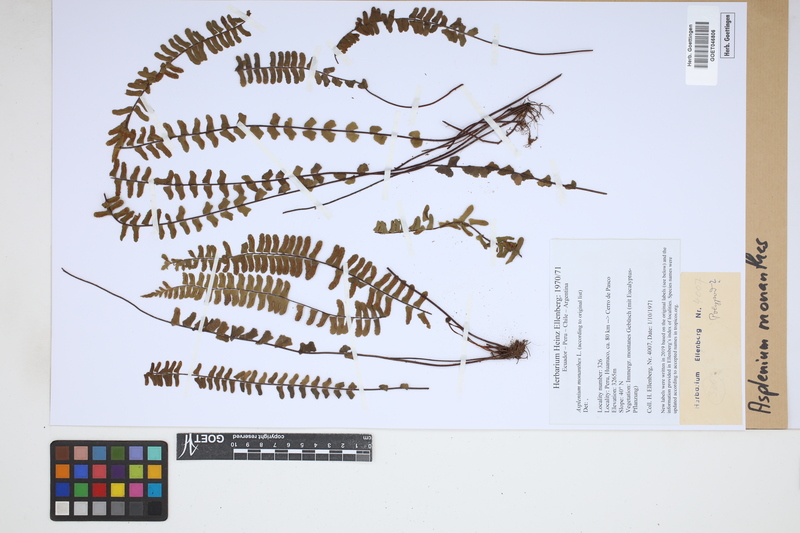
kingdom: Plantae
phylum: Tracheophyta
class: Polypodiopsida
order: Polypodiales
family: Aspleniaceae
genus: Asplenium
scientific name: Asplenium monanthes
